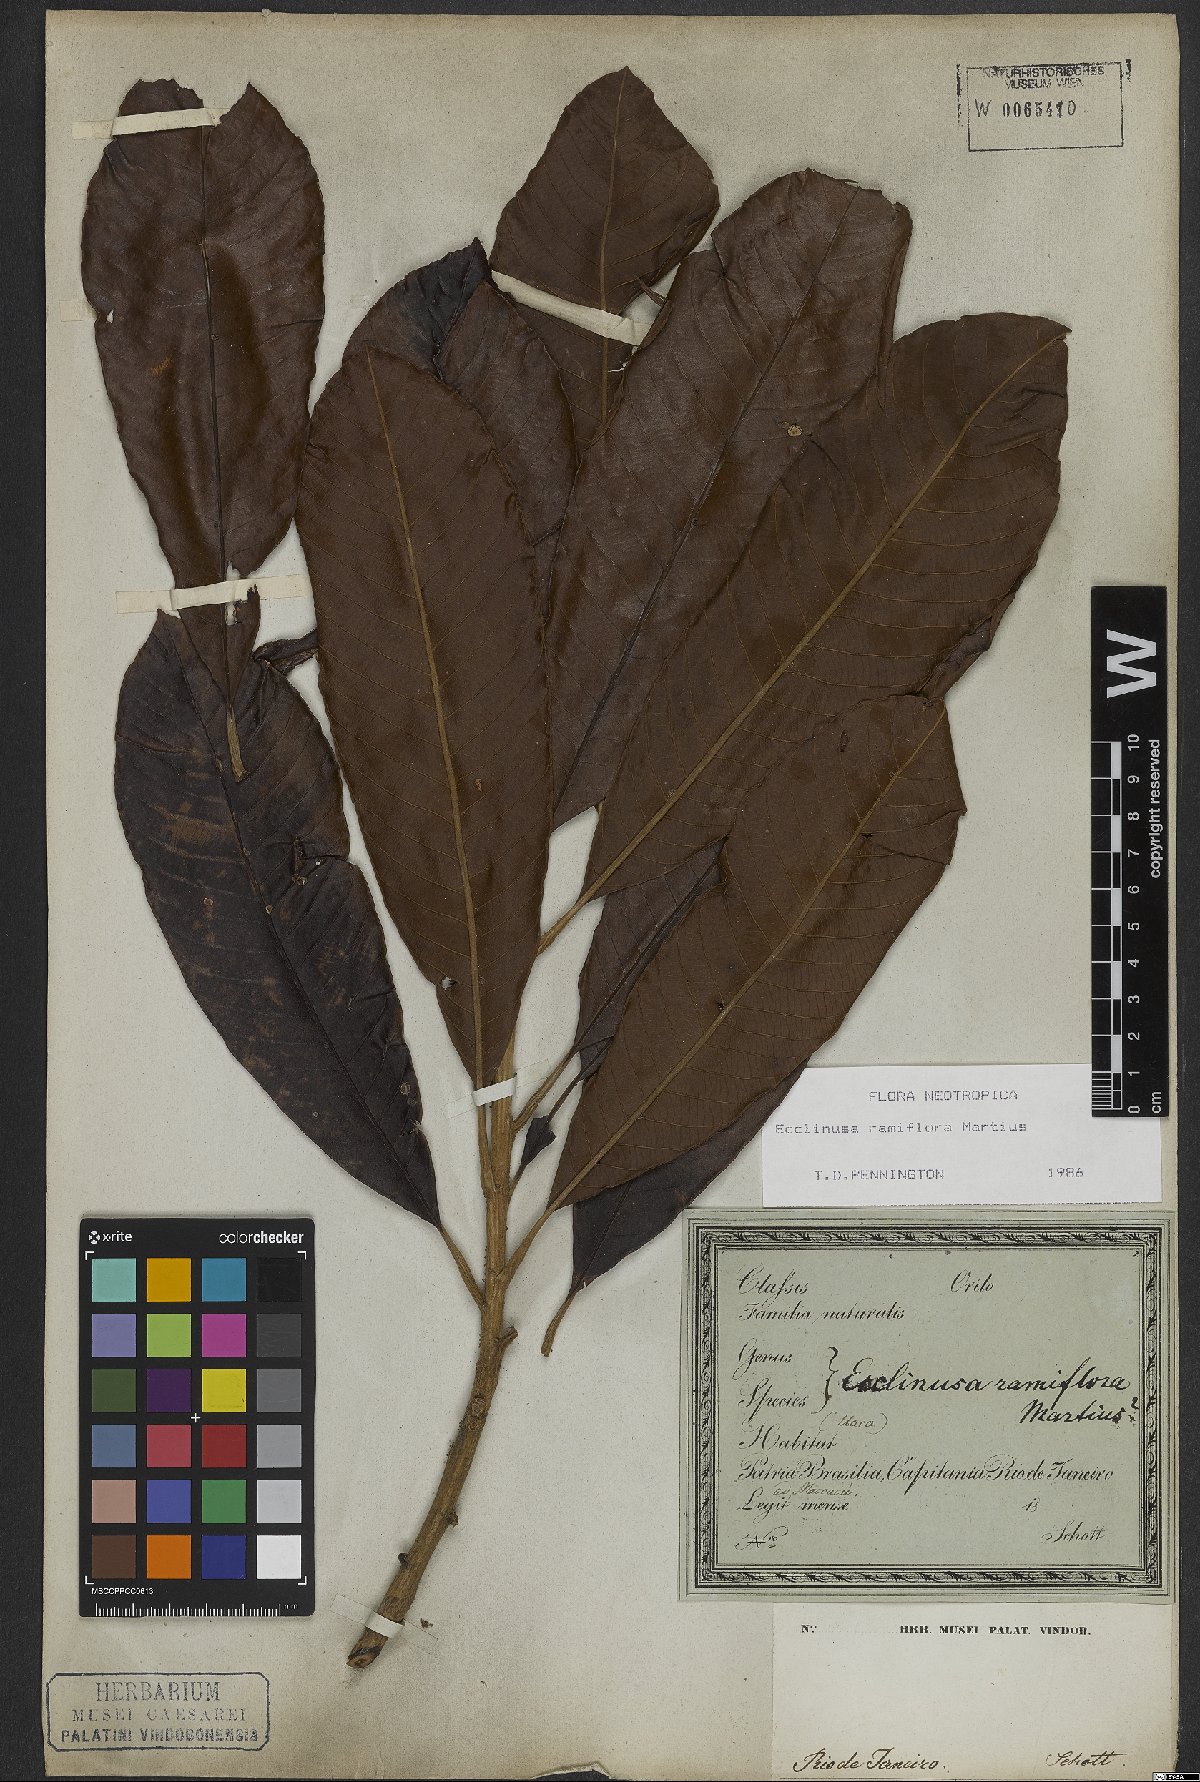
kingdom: Plantae
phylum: Tracheophyta
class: Magnoliopsida
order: Ericales
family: Sapotaceae
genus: Ecclinusa
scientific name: Ecclinusa ramiflora
